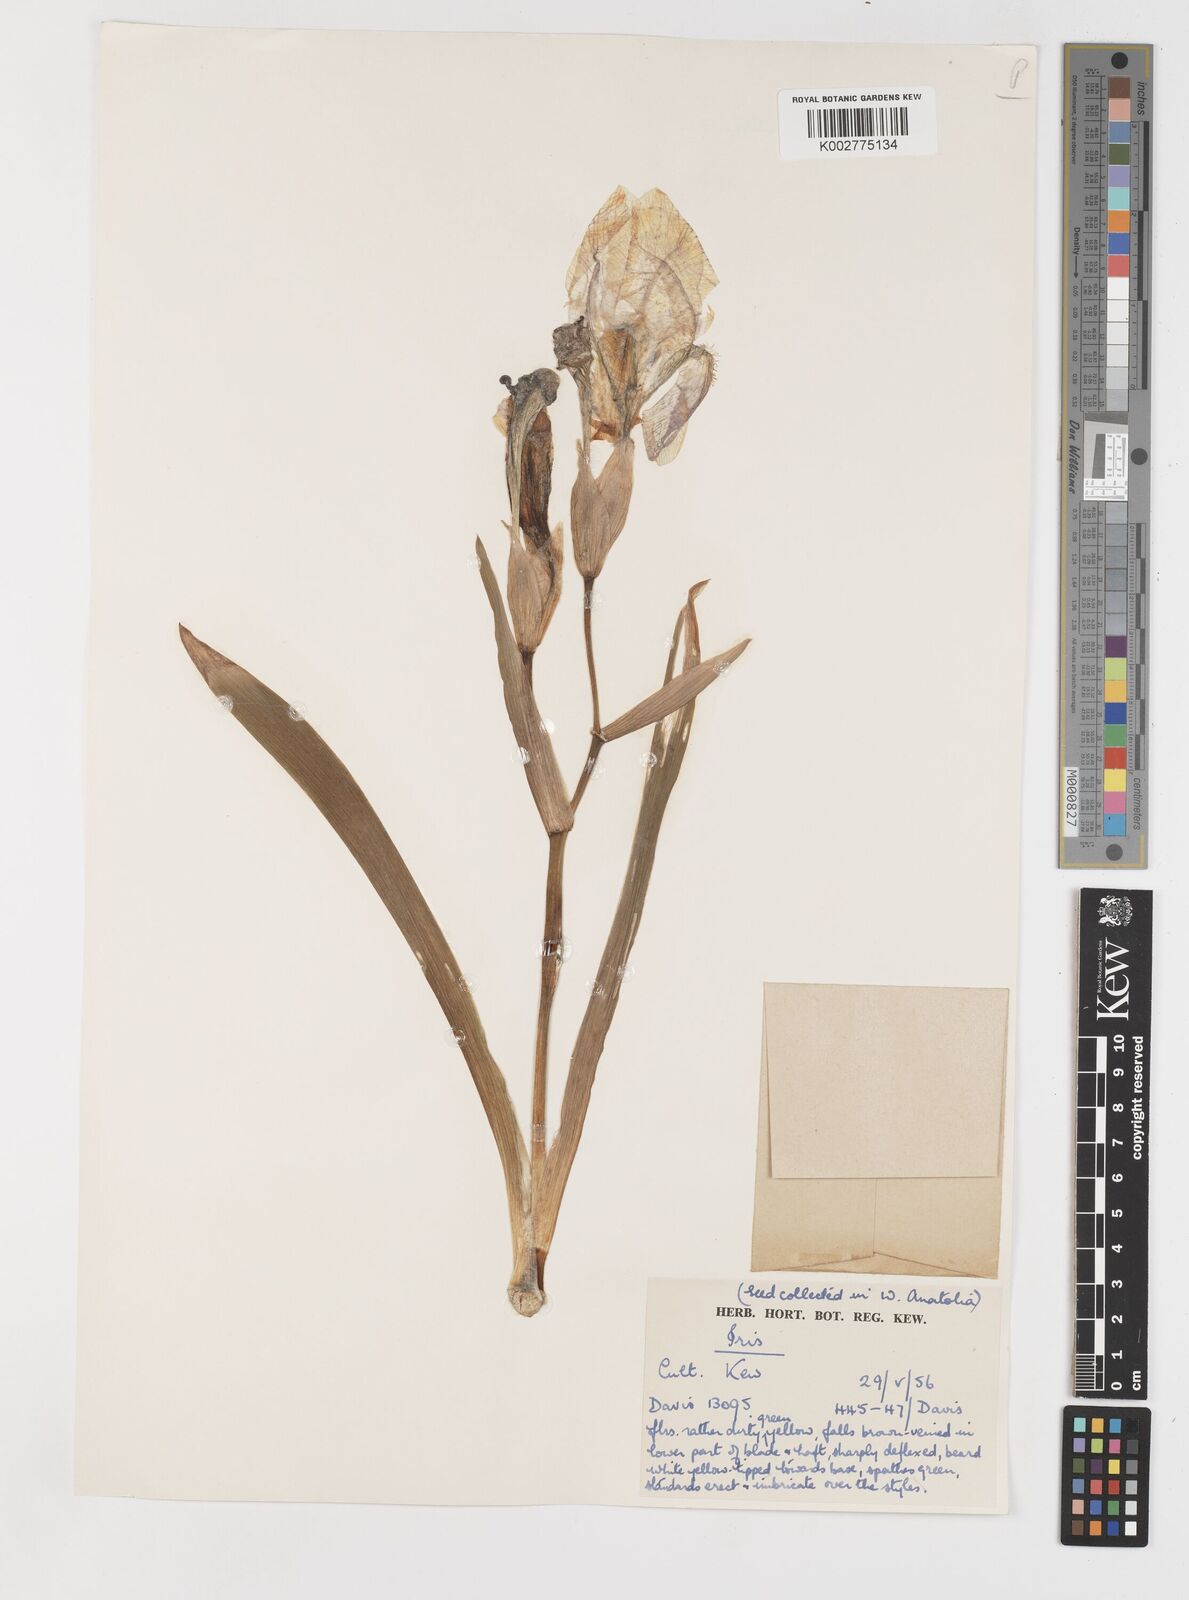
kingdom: Plantae
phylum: Tracheophyta
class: Liliopsida
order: Asparagales
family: Iridaceae
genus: Iris
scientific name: Iris schachtii
